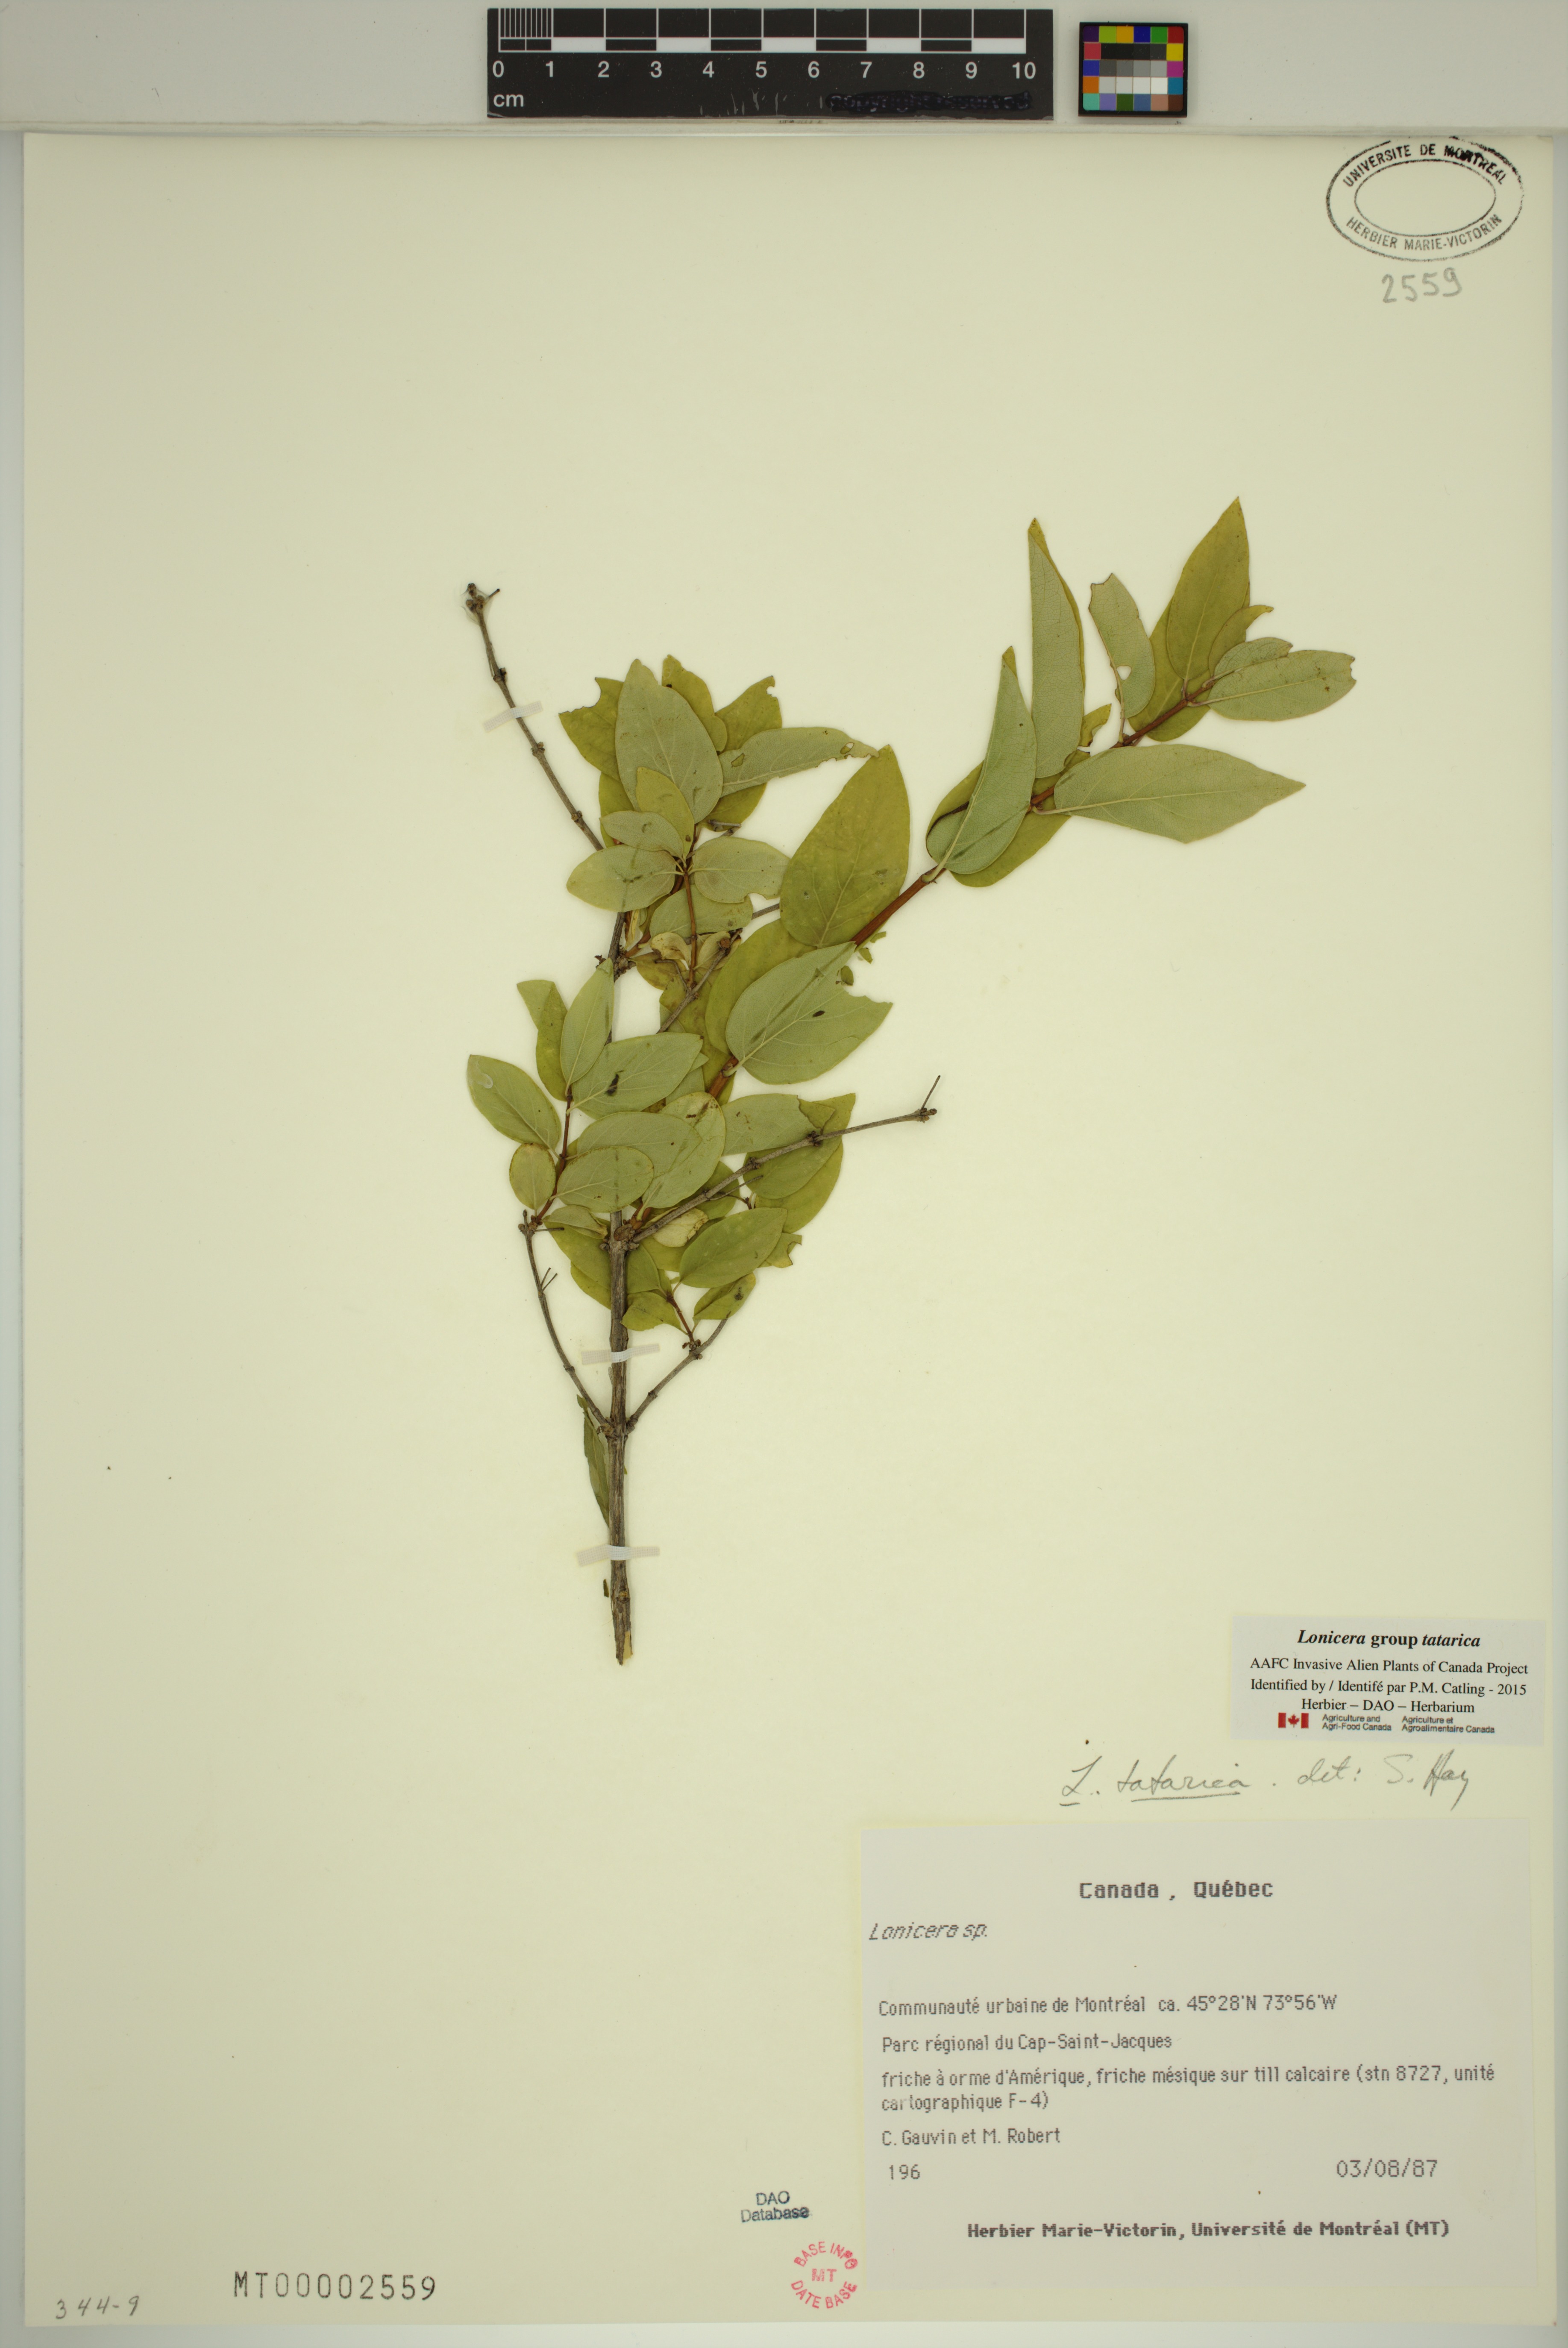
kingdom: Plantae
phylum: Tracheophyta
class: Magnoliopsida
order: Dipsacales
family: Caprifoliaceae
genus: Lonicera
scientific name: Lonicera tatarica
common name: Tatarian honeysuckle
